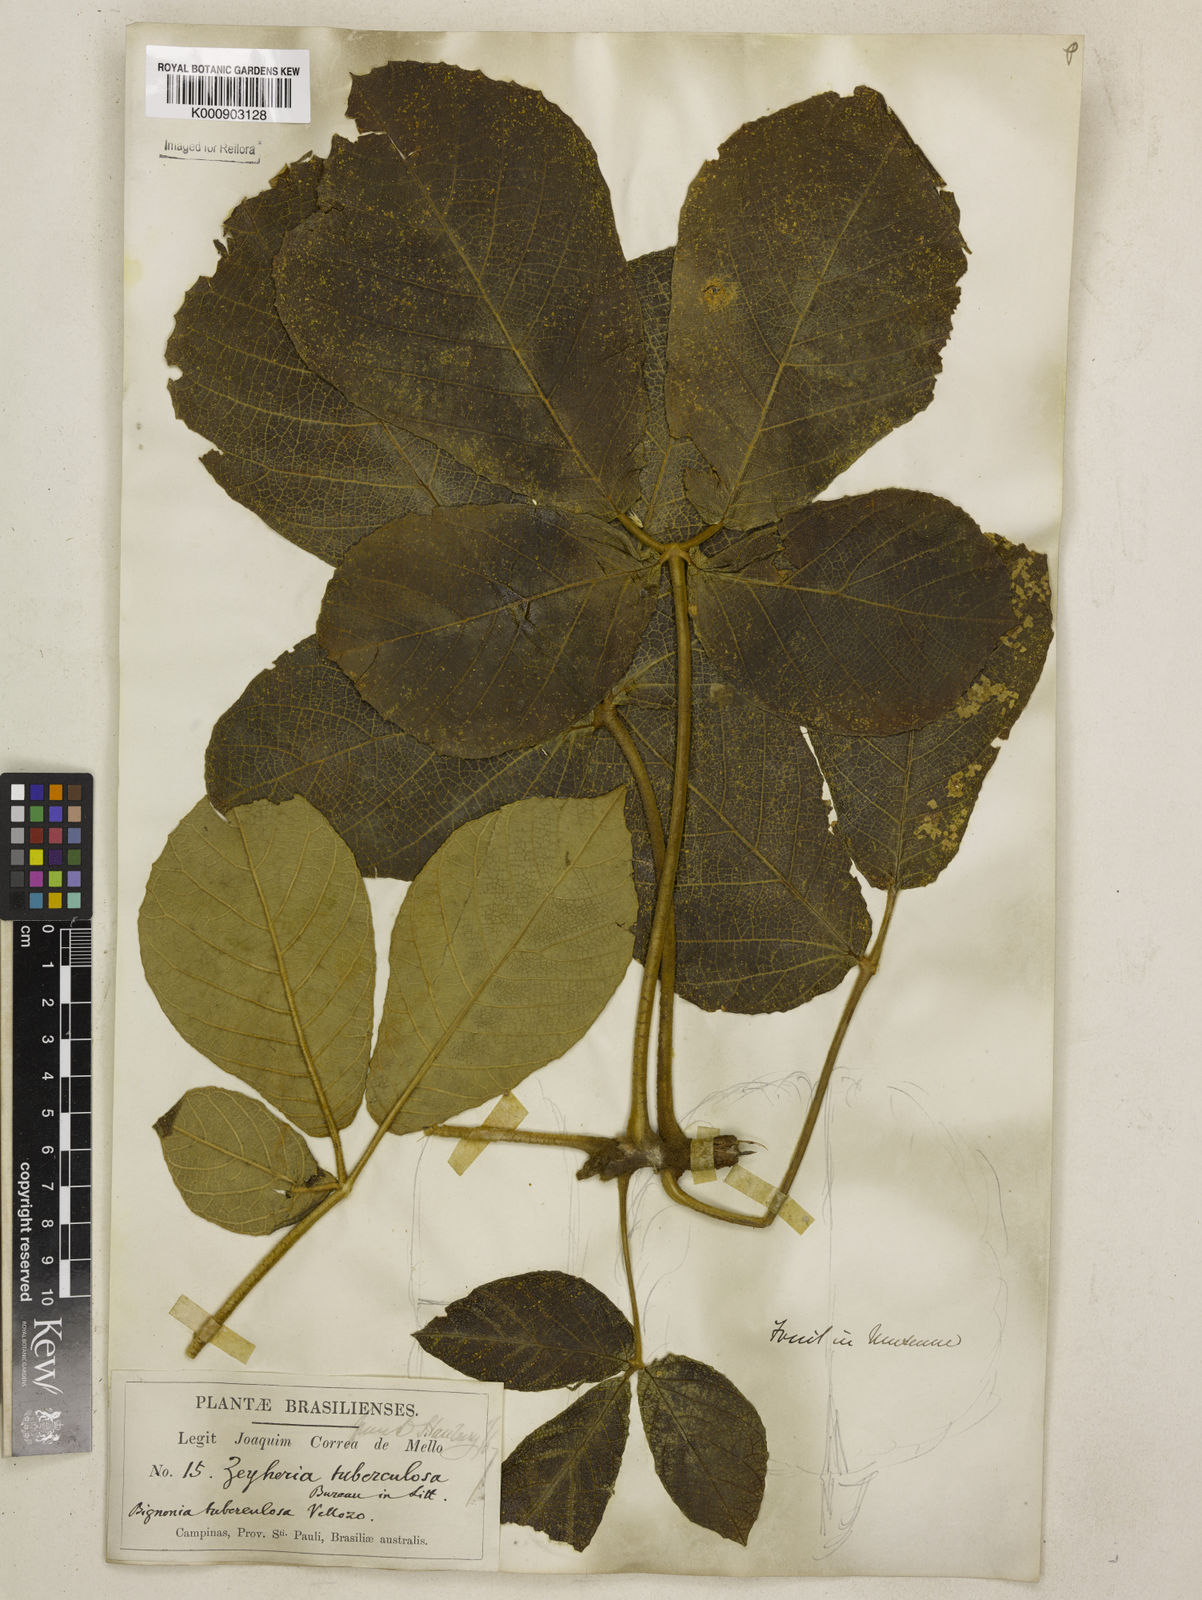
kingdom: Plantae
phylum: Tracheophyta
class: Magnoliopsida
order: Lamiales
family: Bignoniaceae
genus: Zeyheria
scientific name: Zeyheria
